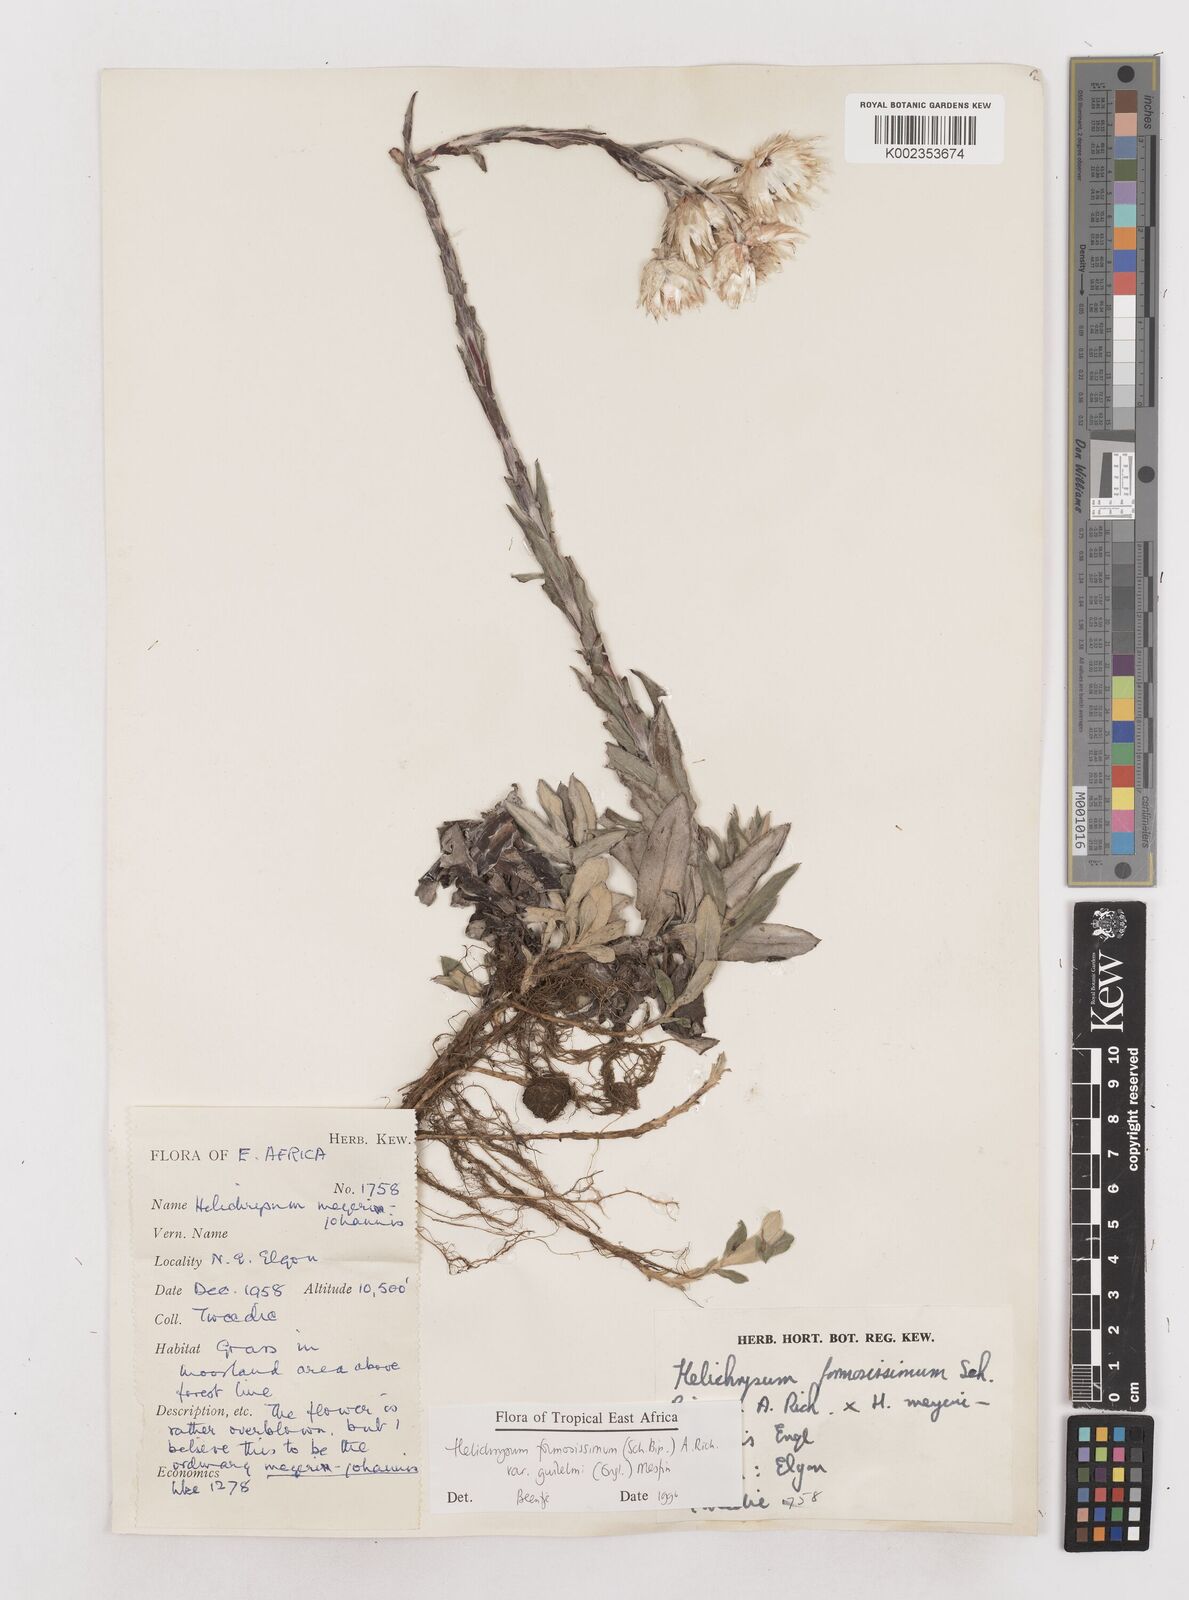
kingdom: Plantae
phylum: Tracheophyta
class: Magnoliopsida
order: Asterales
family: Asteraceae
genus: Helichrysum
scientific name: Helichrysum formosissimum
